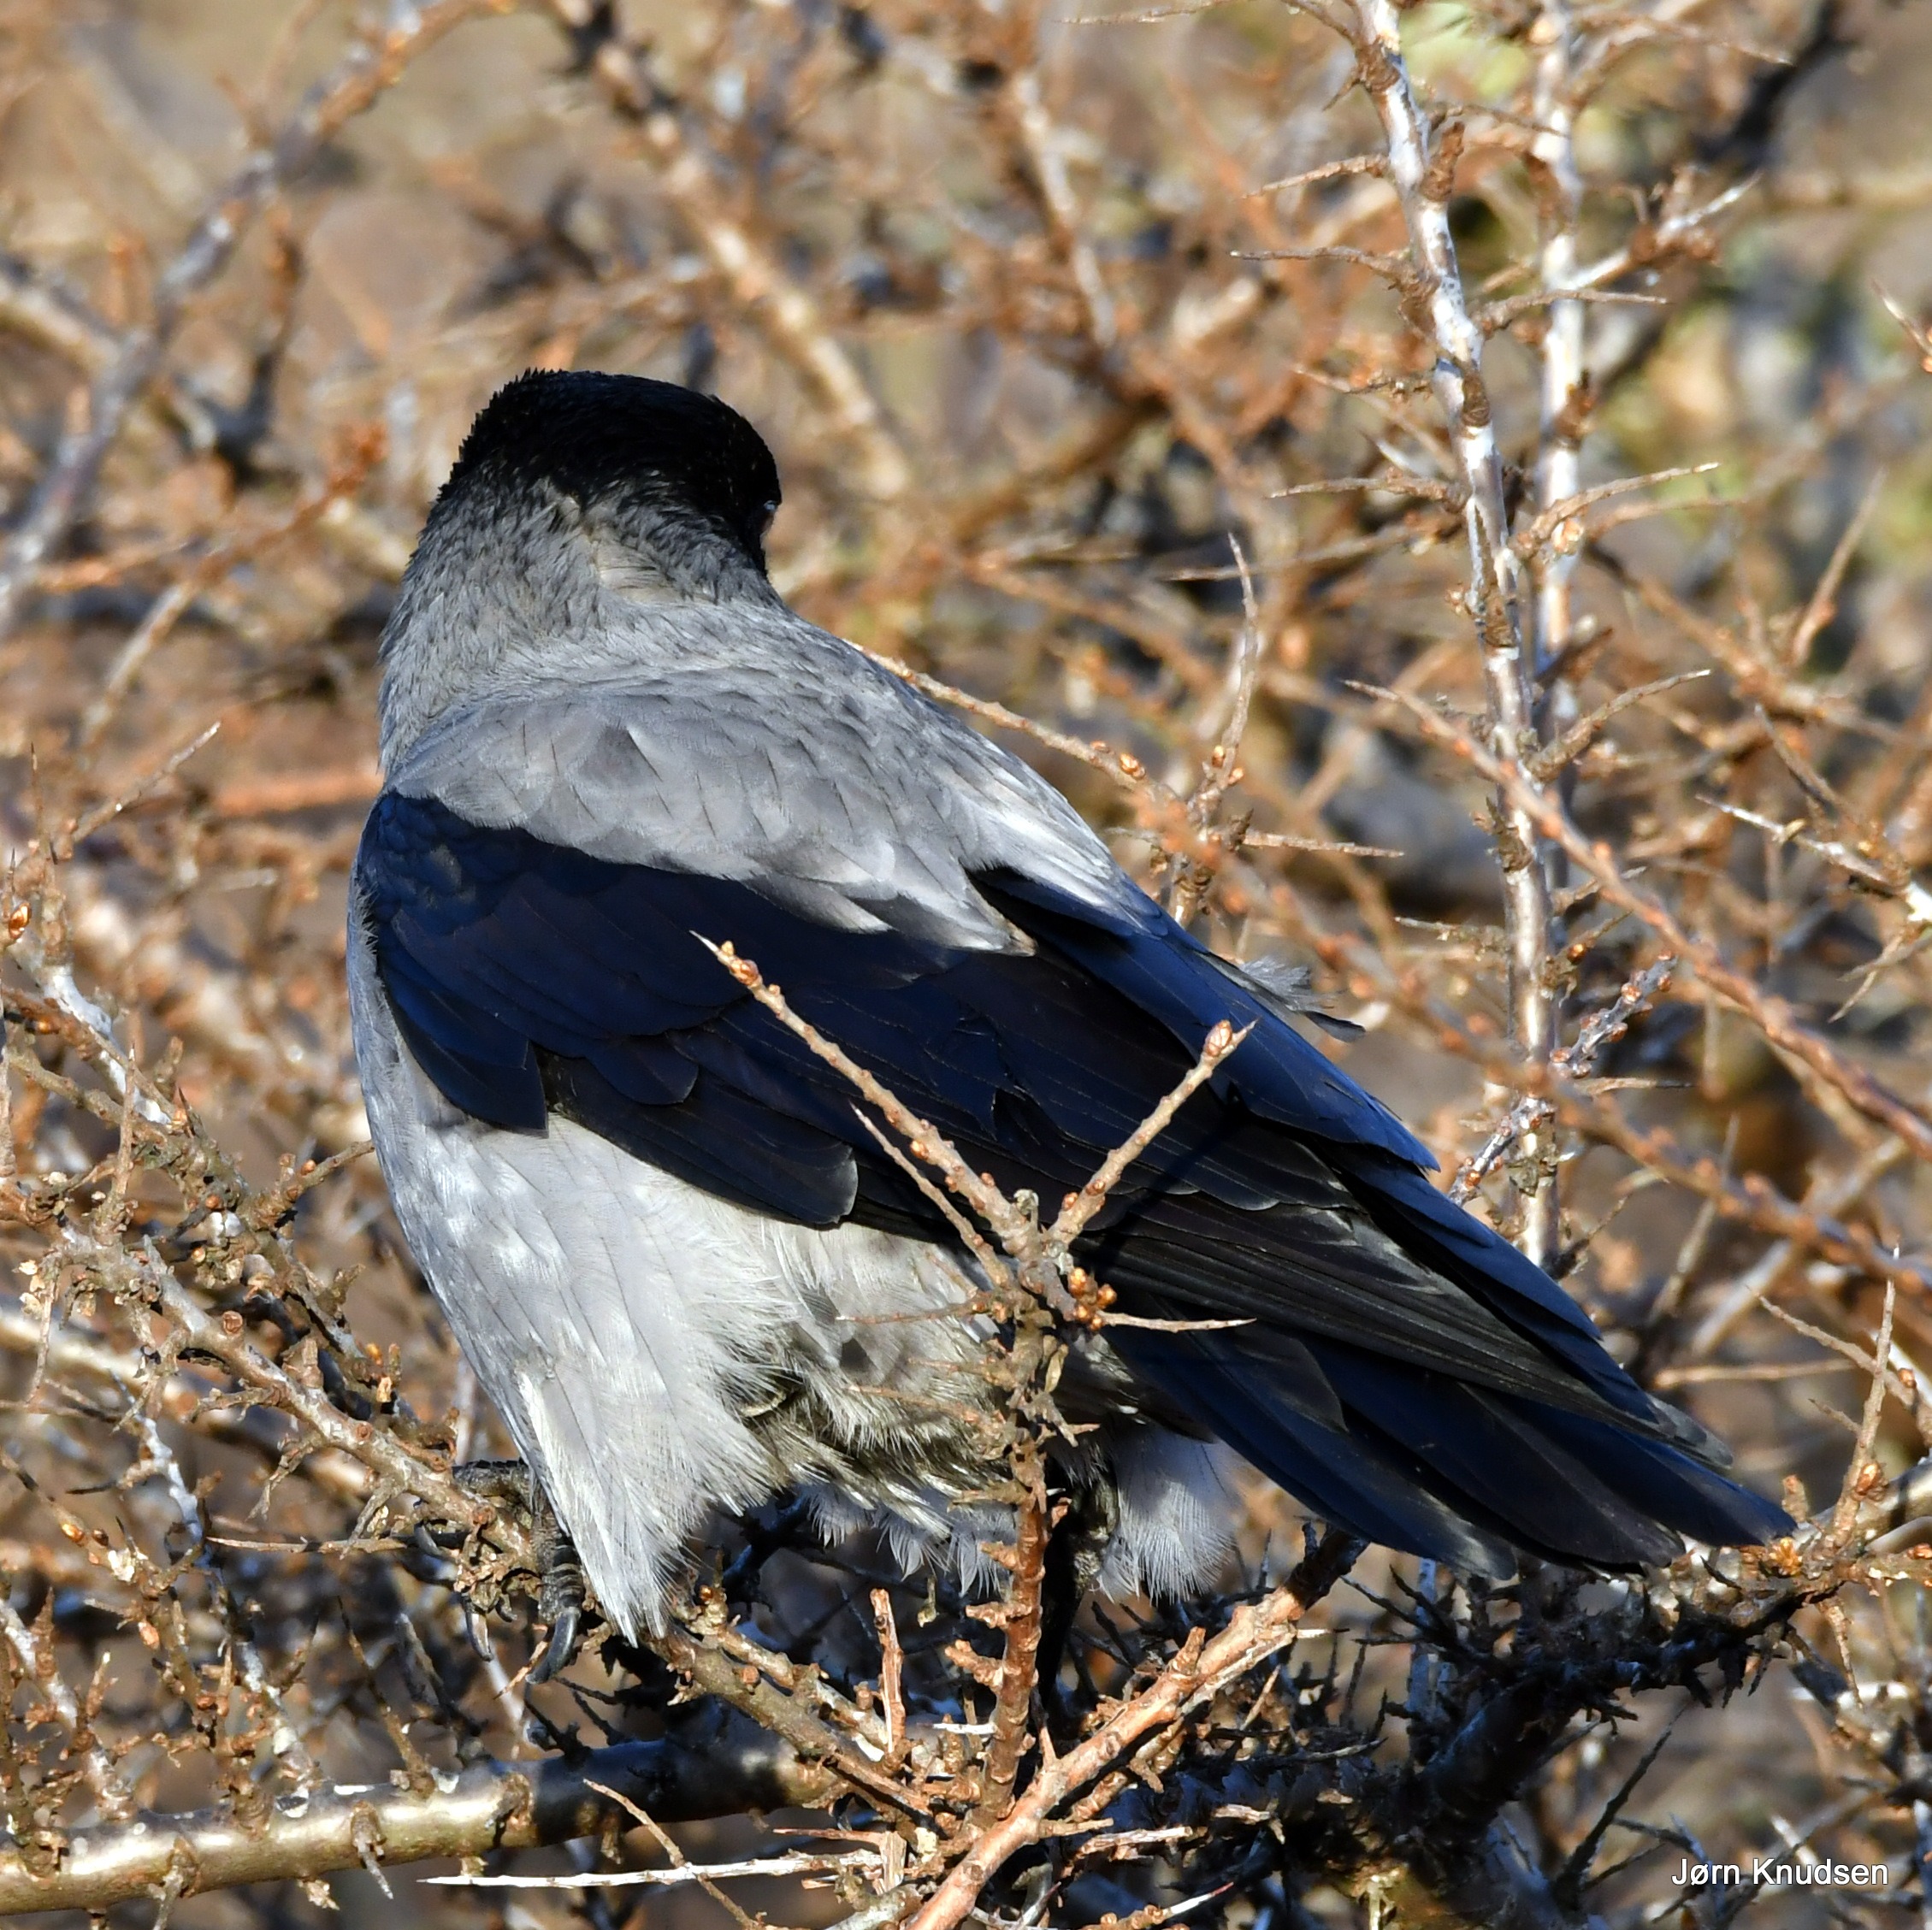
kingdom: Animalia
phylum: Chordata
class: Aves
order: Passeriformes
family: Corvidae
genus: Corvus
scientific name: Corvus cornix
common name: Gråkrage
